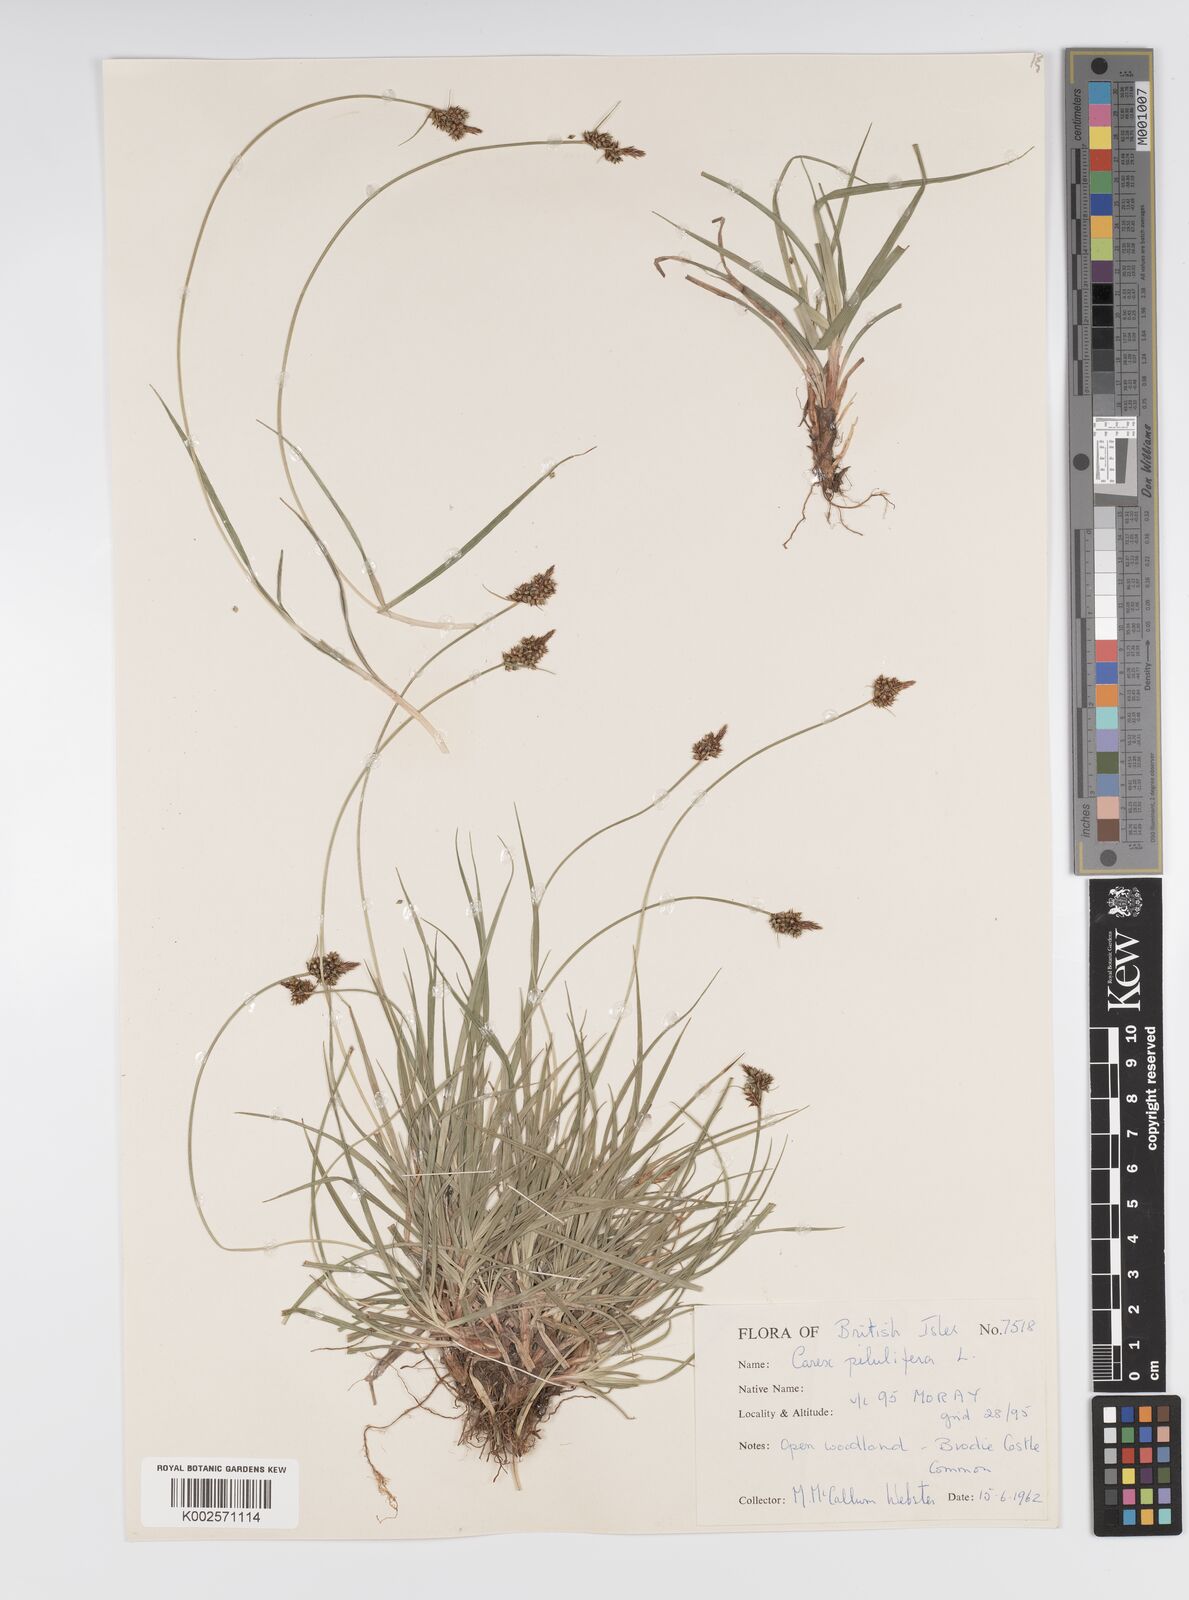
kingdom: Plantae
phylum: Tracheophyta
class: Liliopsida
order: Poales
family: Cyperaceae
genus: Carex
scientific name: Carex pilulifera
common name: Pill sedge
